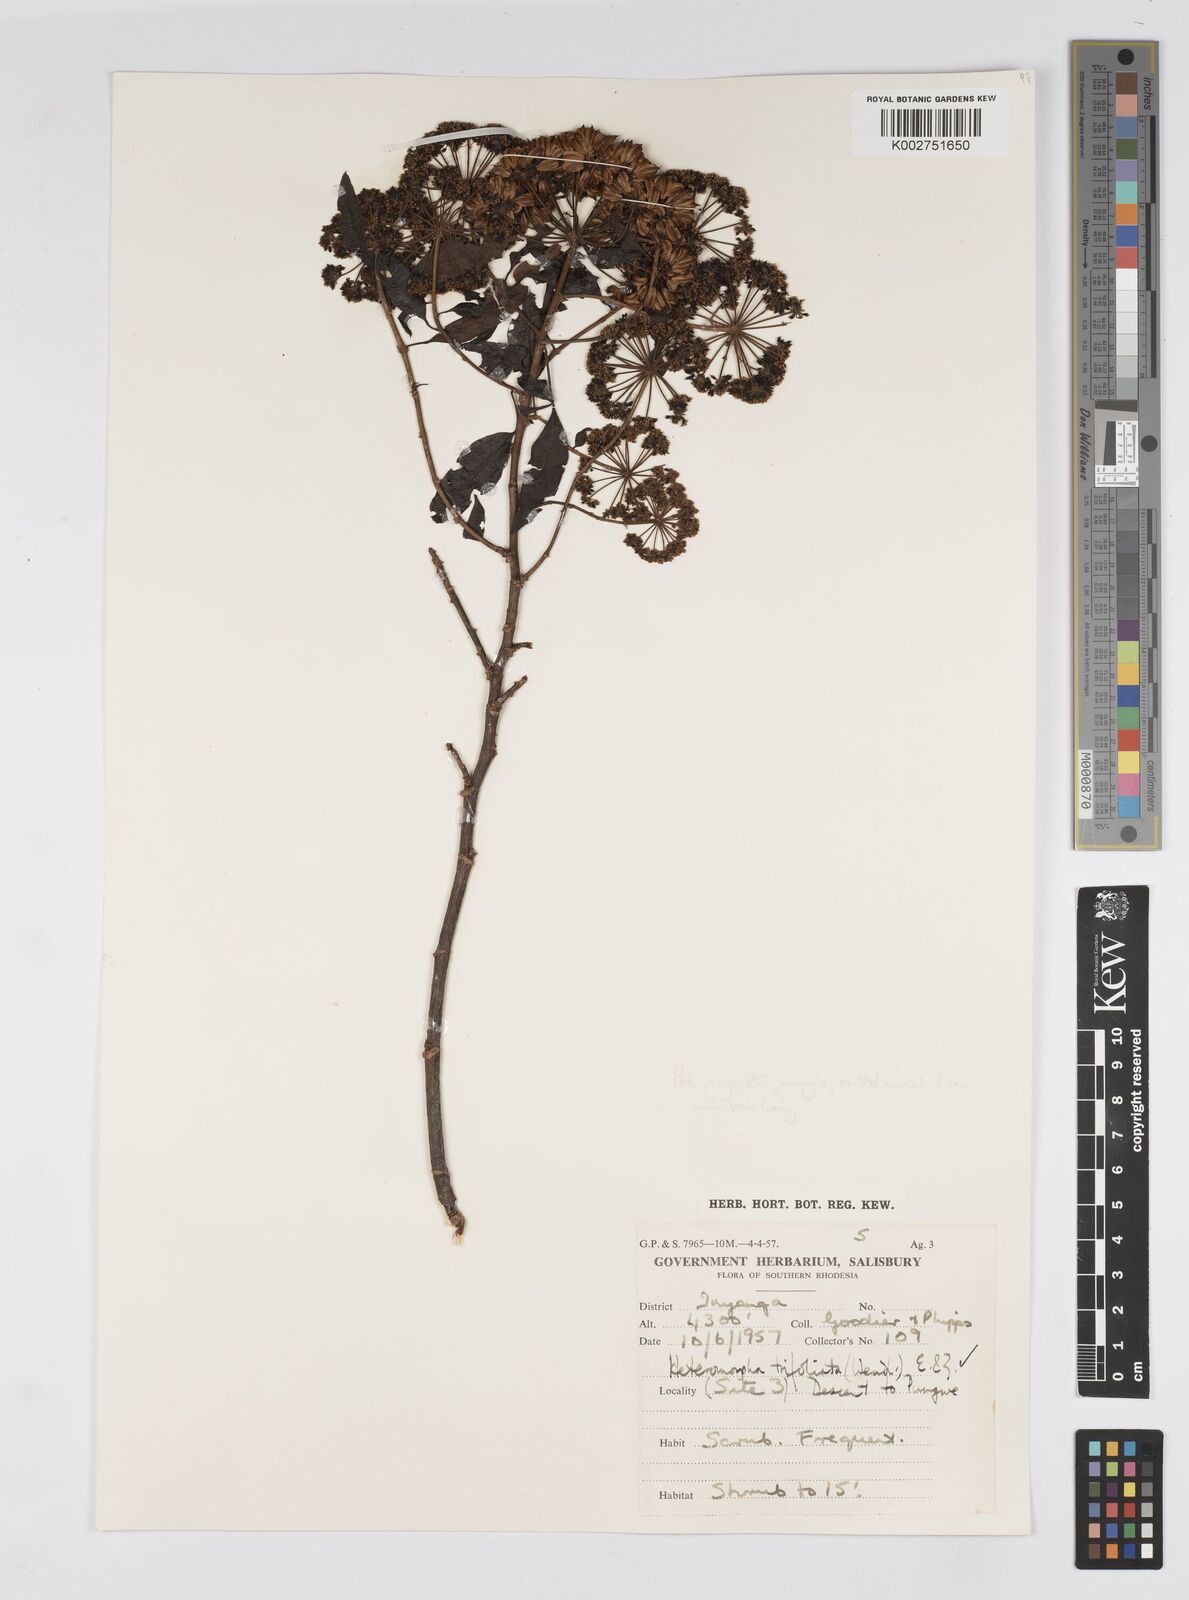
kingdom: Plantae
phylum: Tracheophyta
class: Magnoliopsida
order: Apiales
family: Apiaceae
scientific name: Apiaceae
